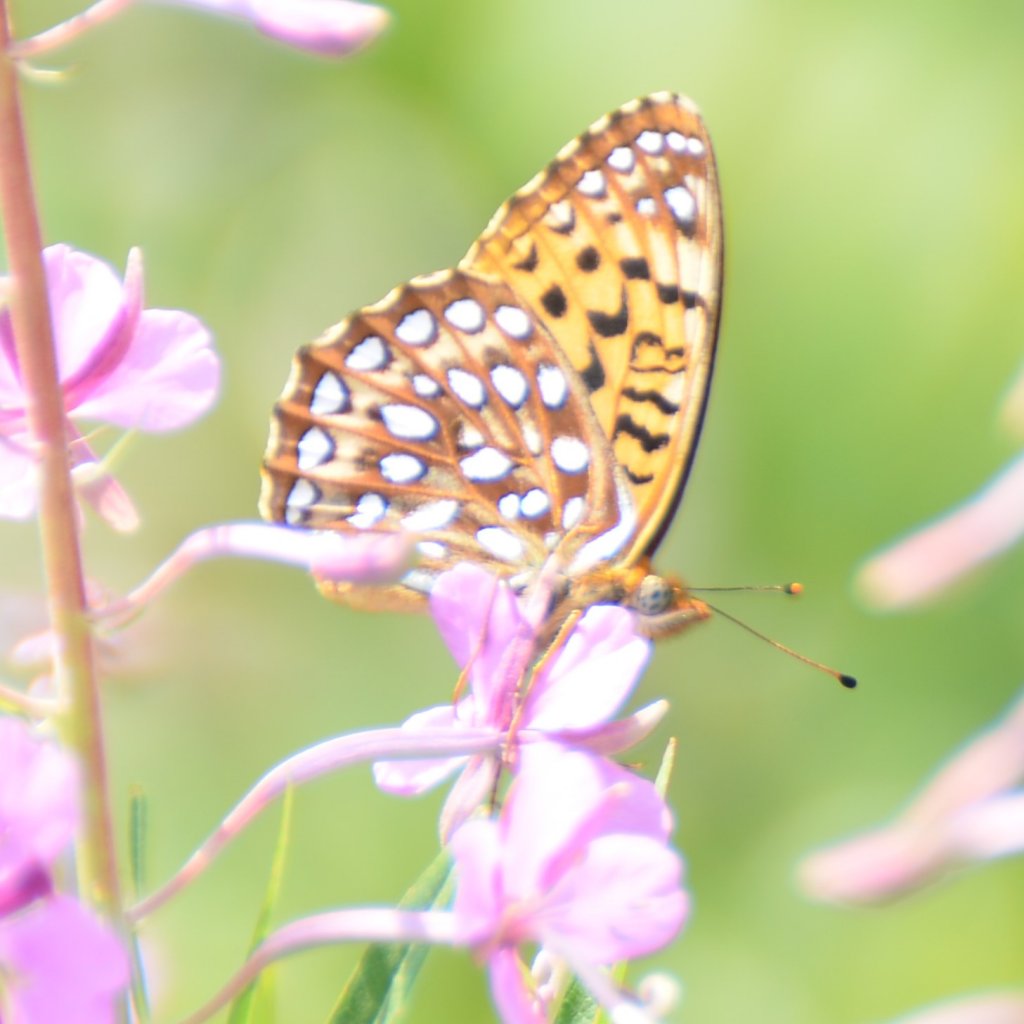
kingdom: Animalia
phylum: Arthropoda
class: Insecta
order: Lepidoptera
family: Nymphalidae
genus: Speyeria
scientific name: Speyeria atlantis
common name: Atlantis Fritillary
